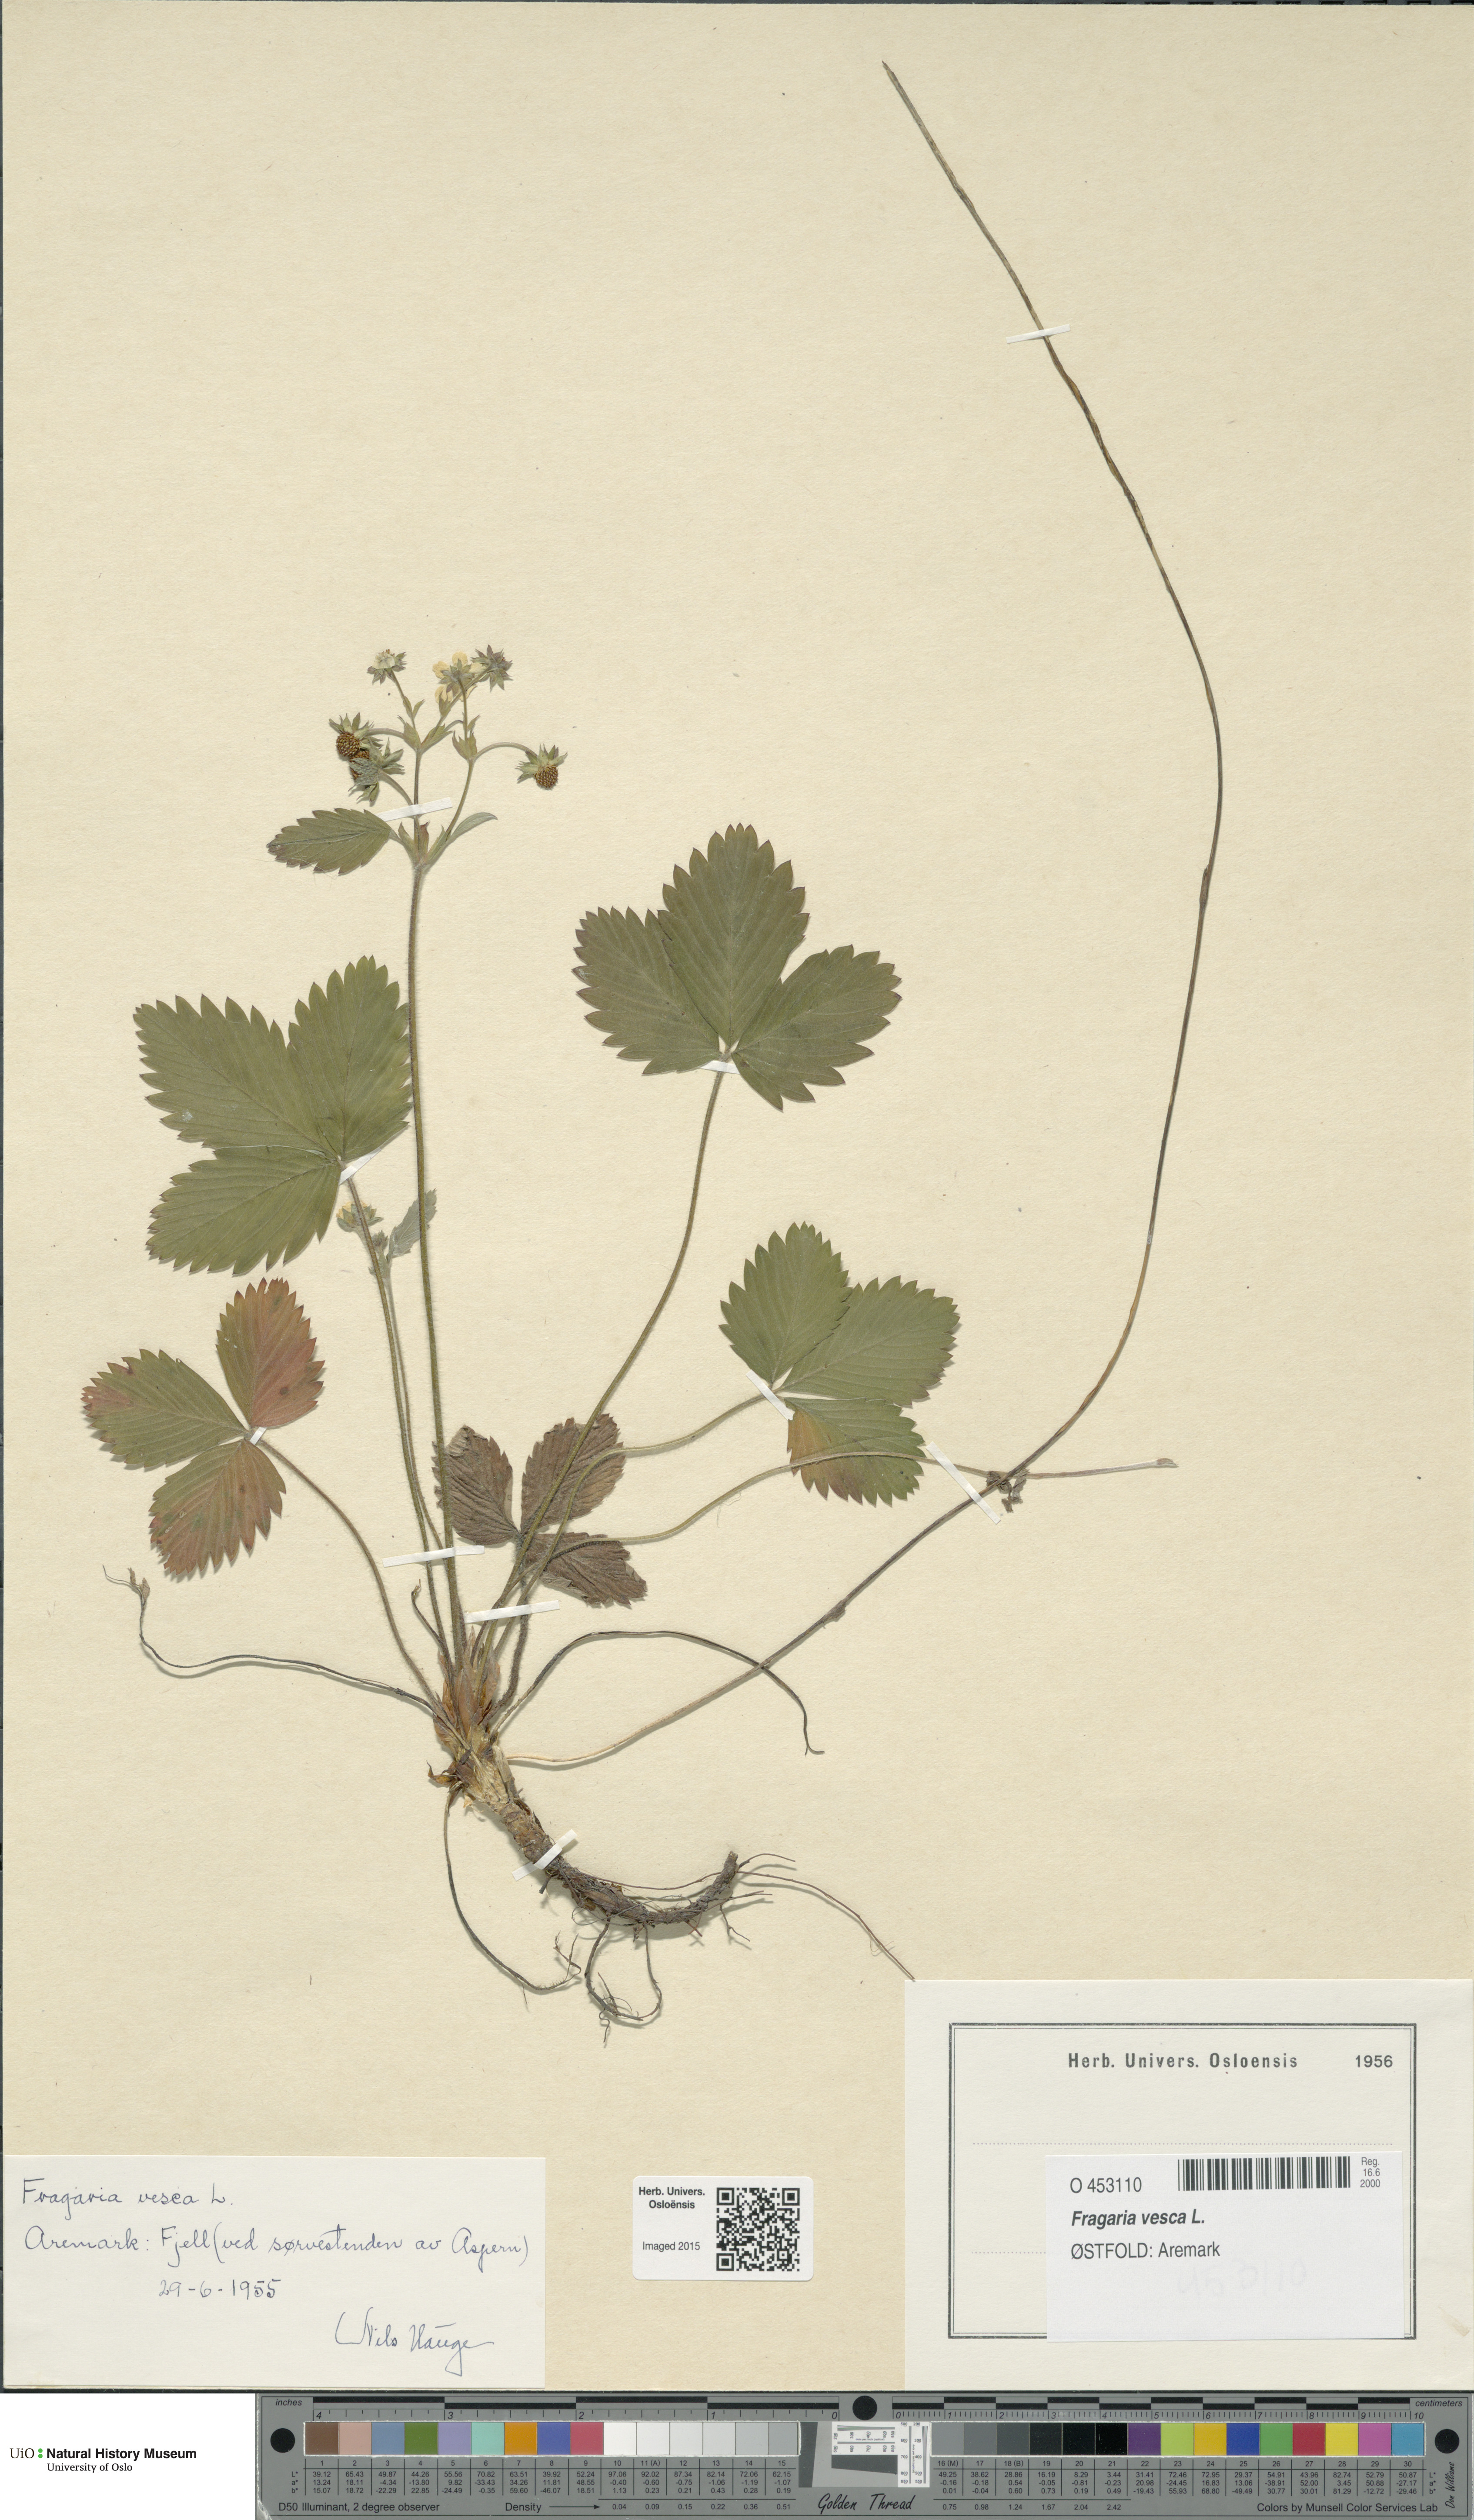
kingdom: Plantae
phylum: Tracheophyta
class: Magnoliopsida
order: Rosales
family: Rosaceae
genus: Fragaria
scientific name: Fragaria vesca
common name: Wild strawberry
